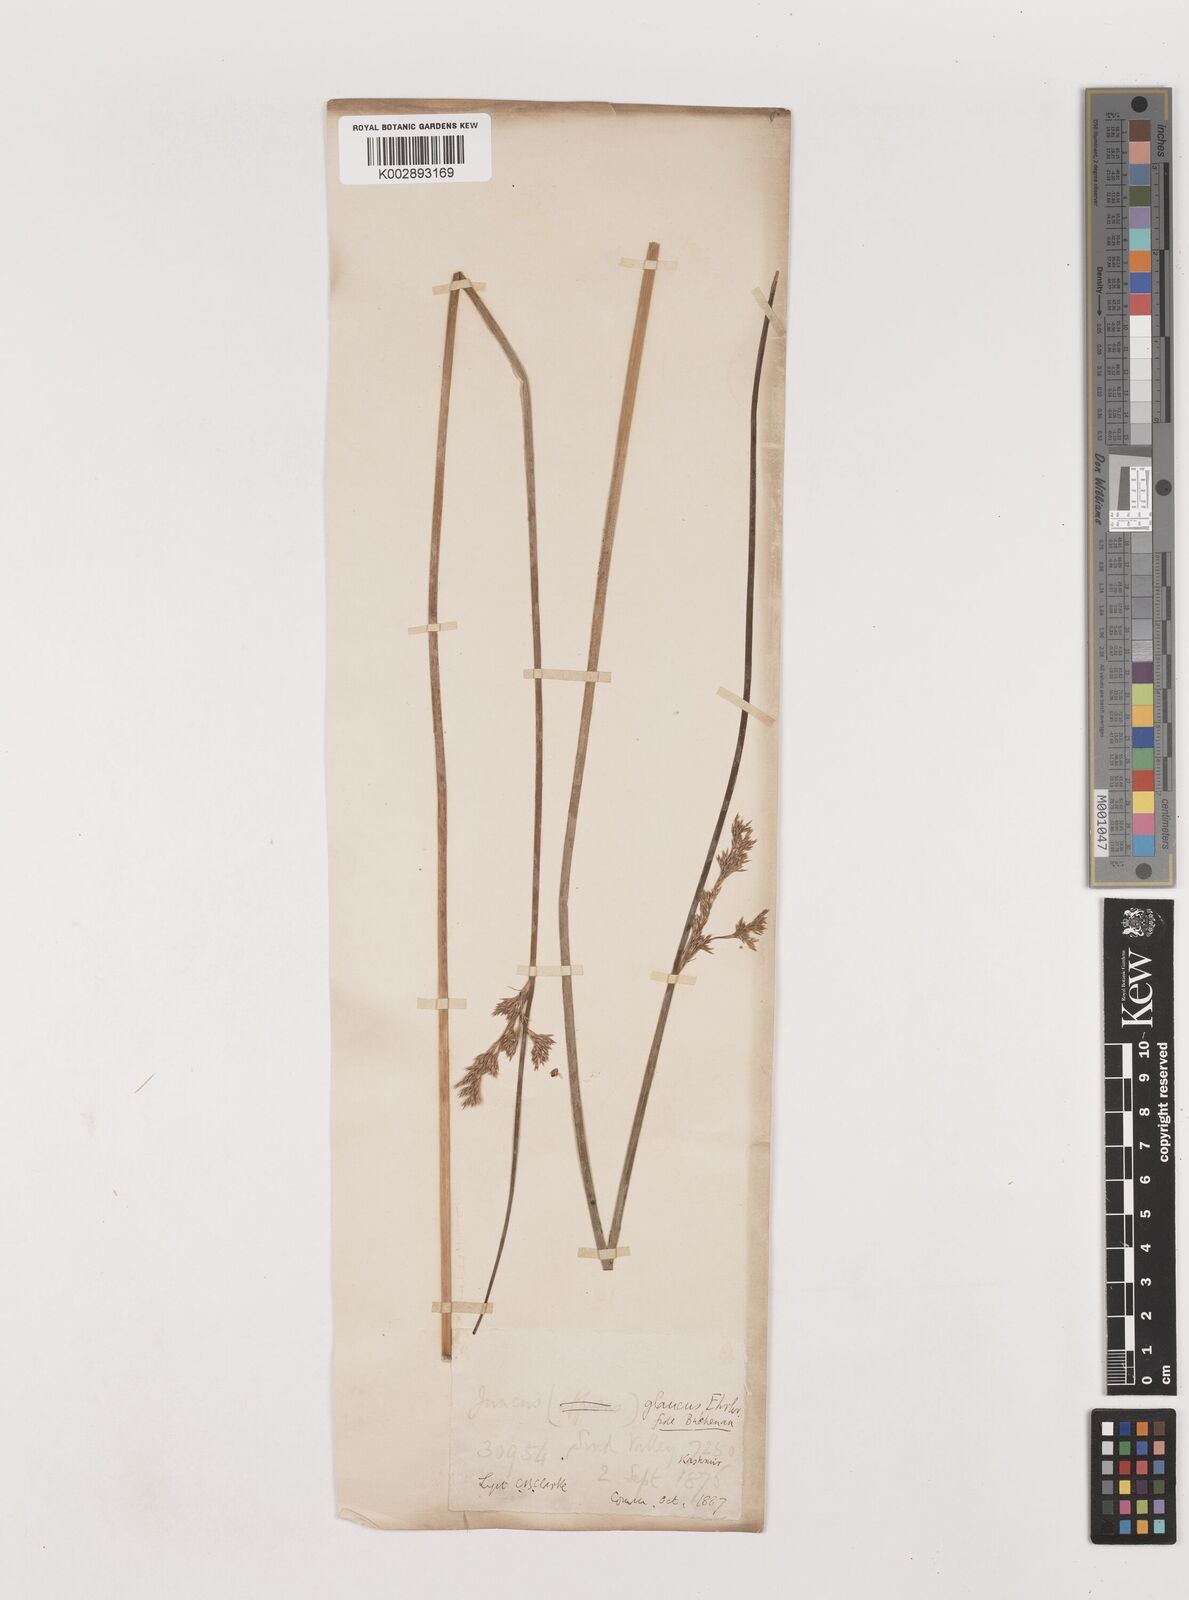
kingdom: Plantae
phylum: Tracheophyta
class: Liliopsida
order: Poales
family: Juncaceae
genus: Juncus
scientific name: Juncus inflexus
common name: Hard rush
